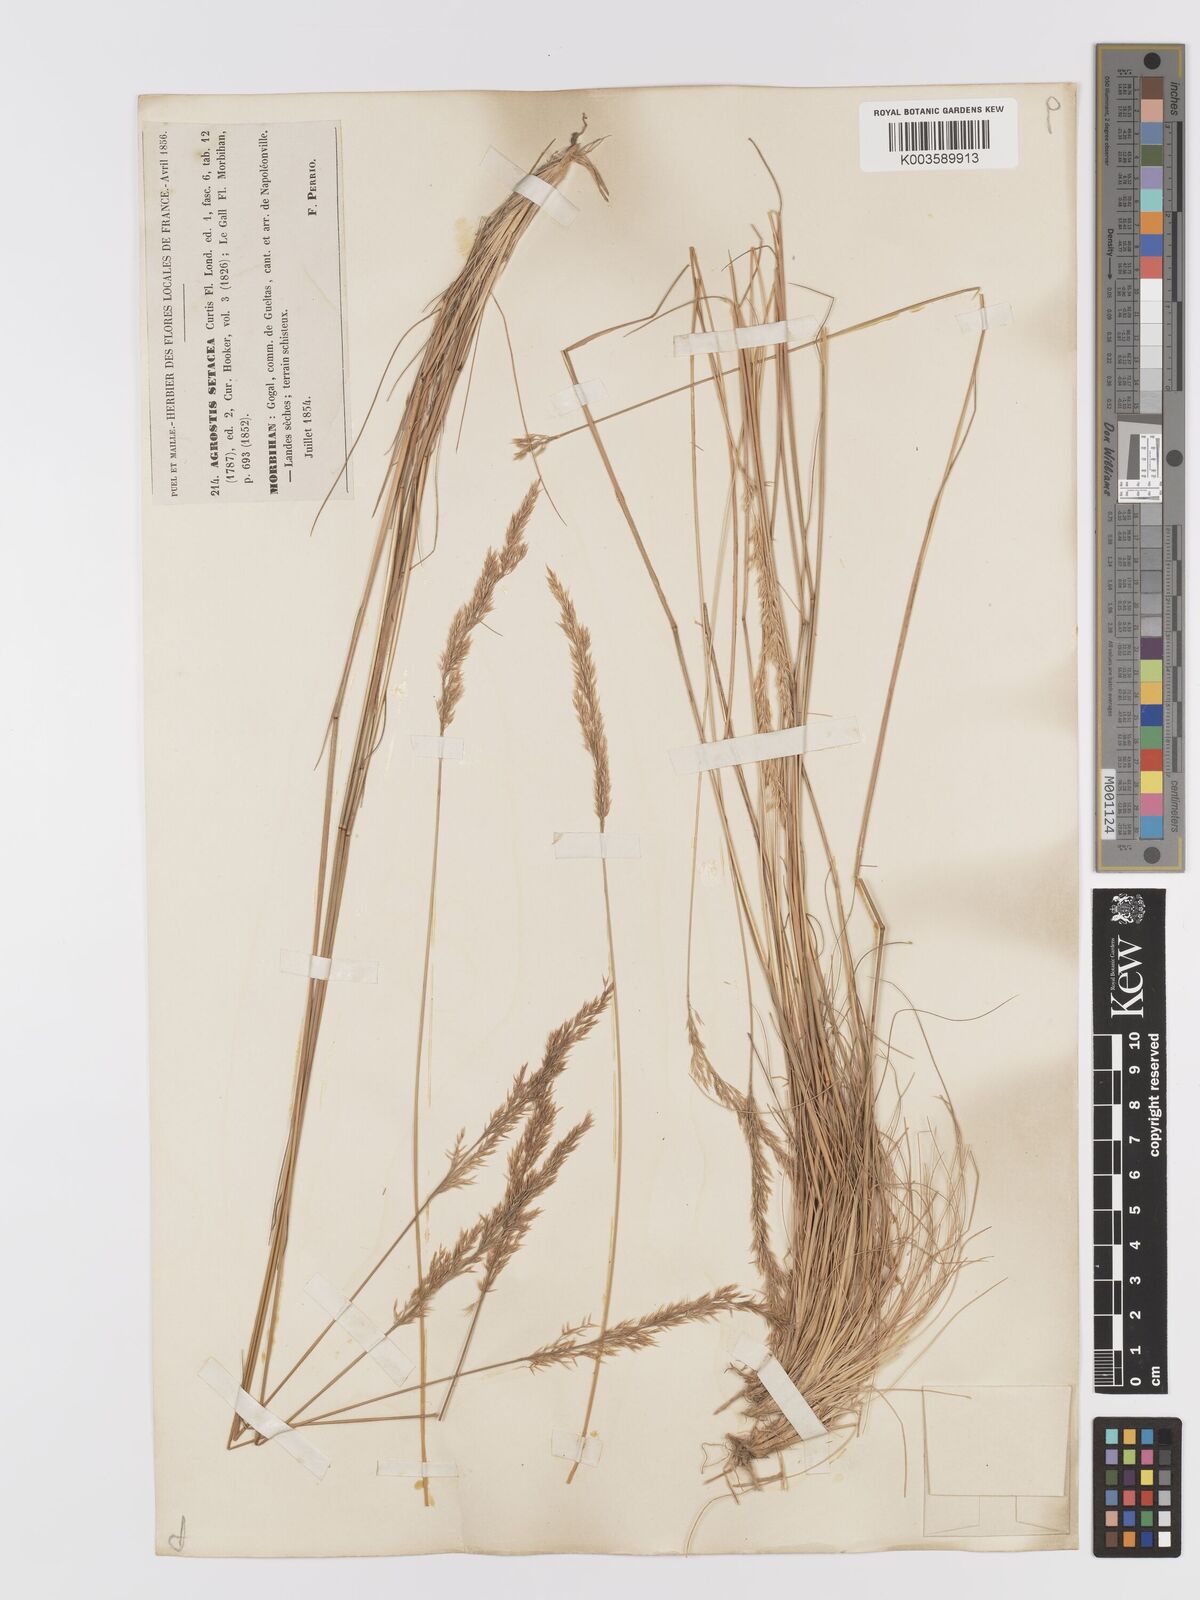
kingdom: Plantae
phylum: Tracheophyta
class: Liliopsida
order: Poales
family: Poaceae
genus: Alpagrostis
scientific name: Alpagrostis setacea
